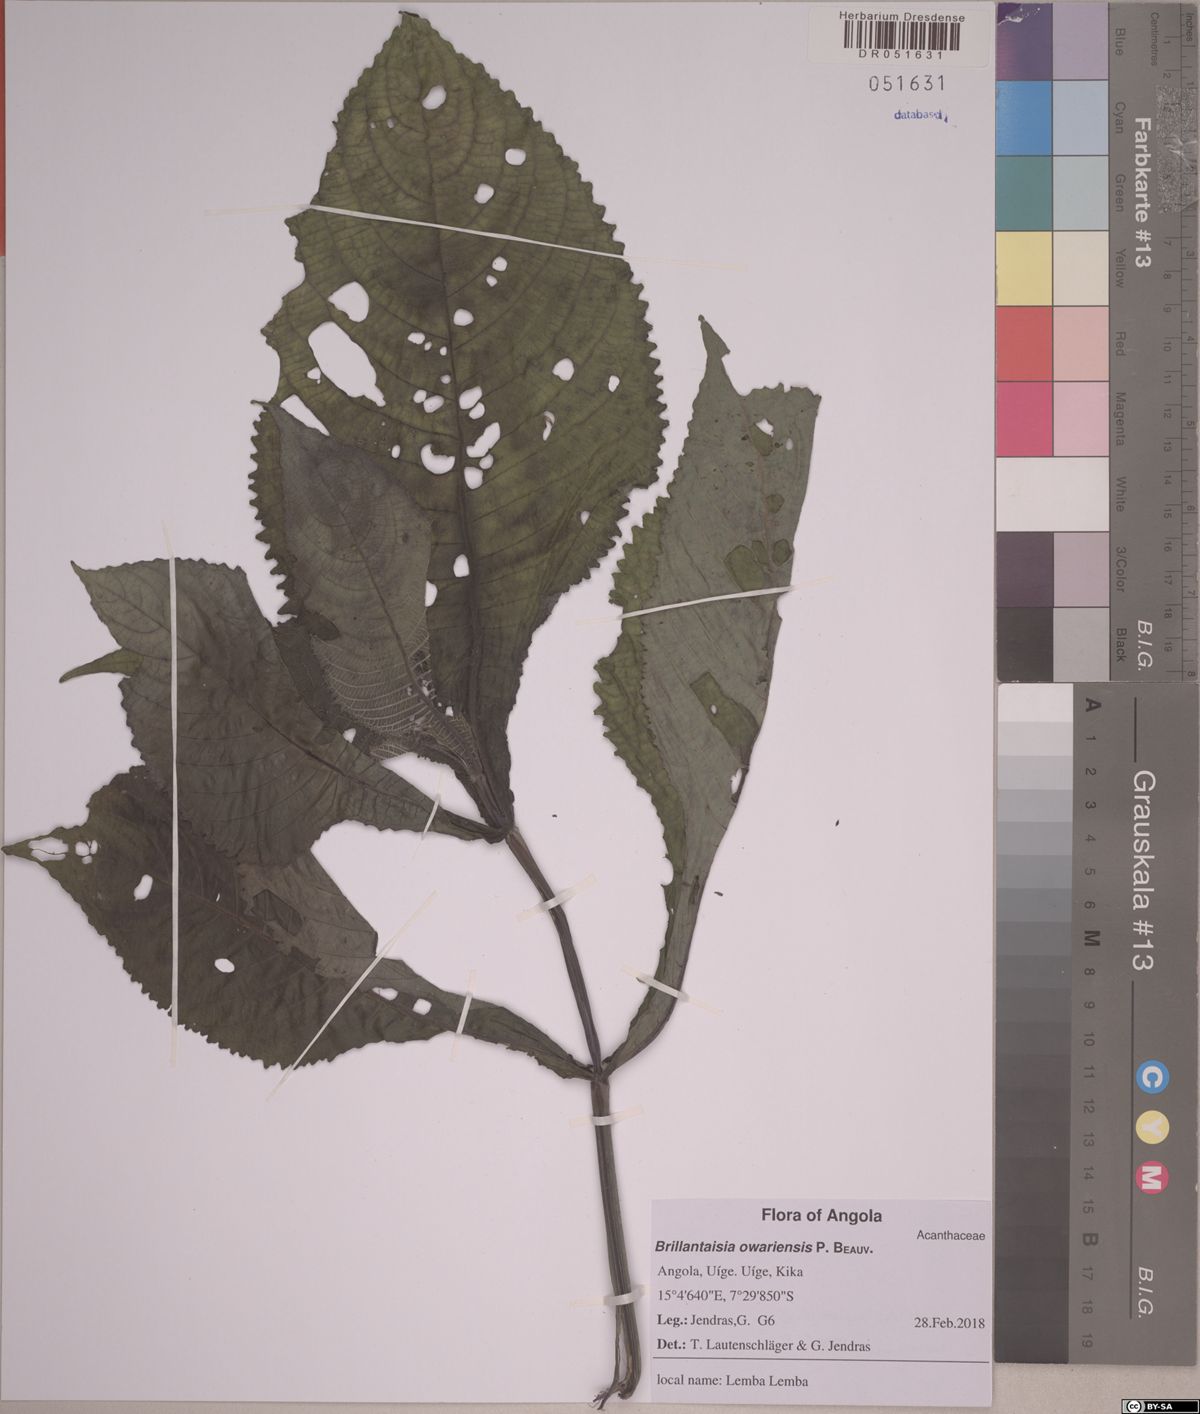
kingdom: Plantae
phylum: Tracheophyta
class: Magnoliopsida
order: Lamiales
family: Acanthaceae
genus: Brillantaisia
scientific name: Brillantaisia owariensis
